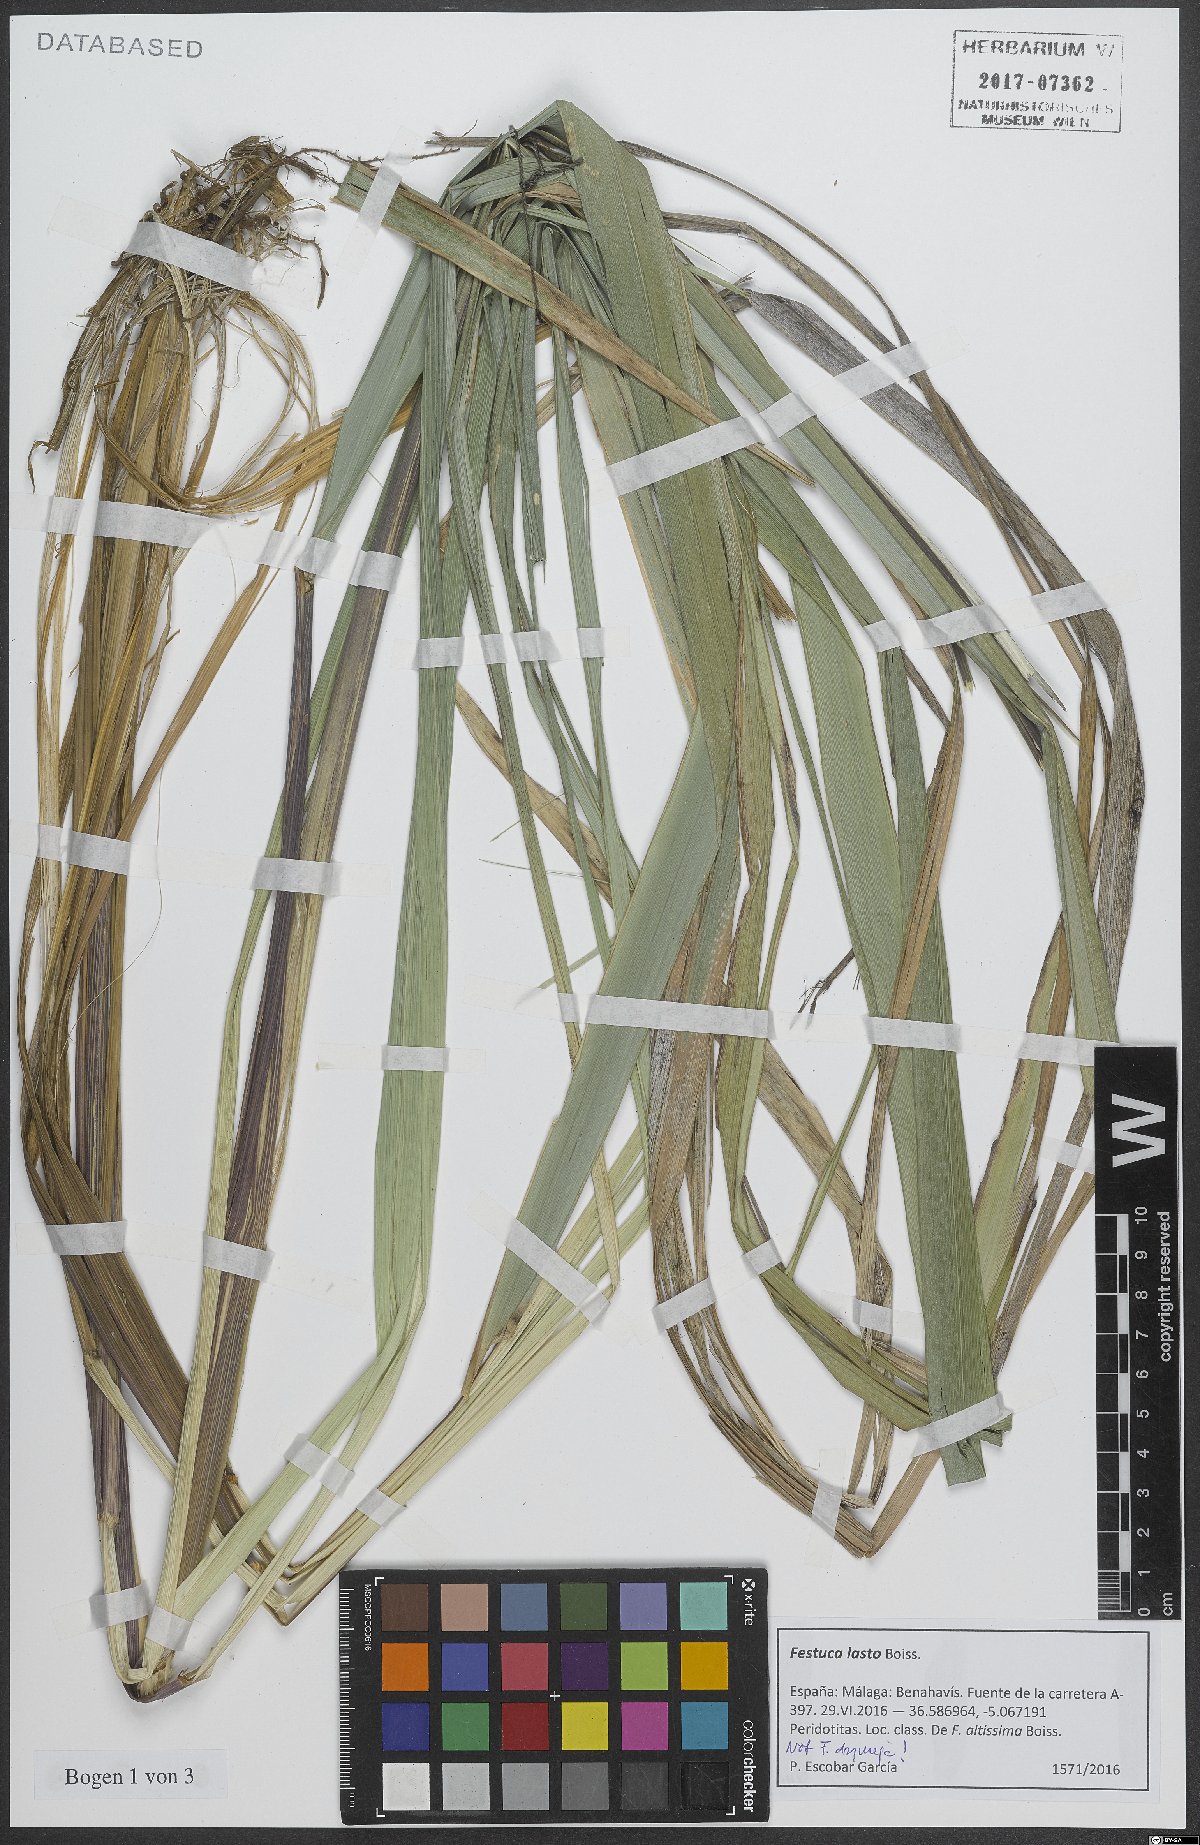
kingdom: Plantae
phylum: Tracheophyta
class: Liliopsida
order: Poales
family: Poaceae
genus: Festuca
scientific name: Festuca drymeja
